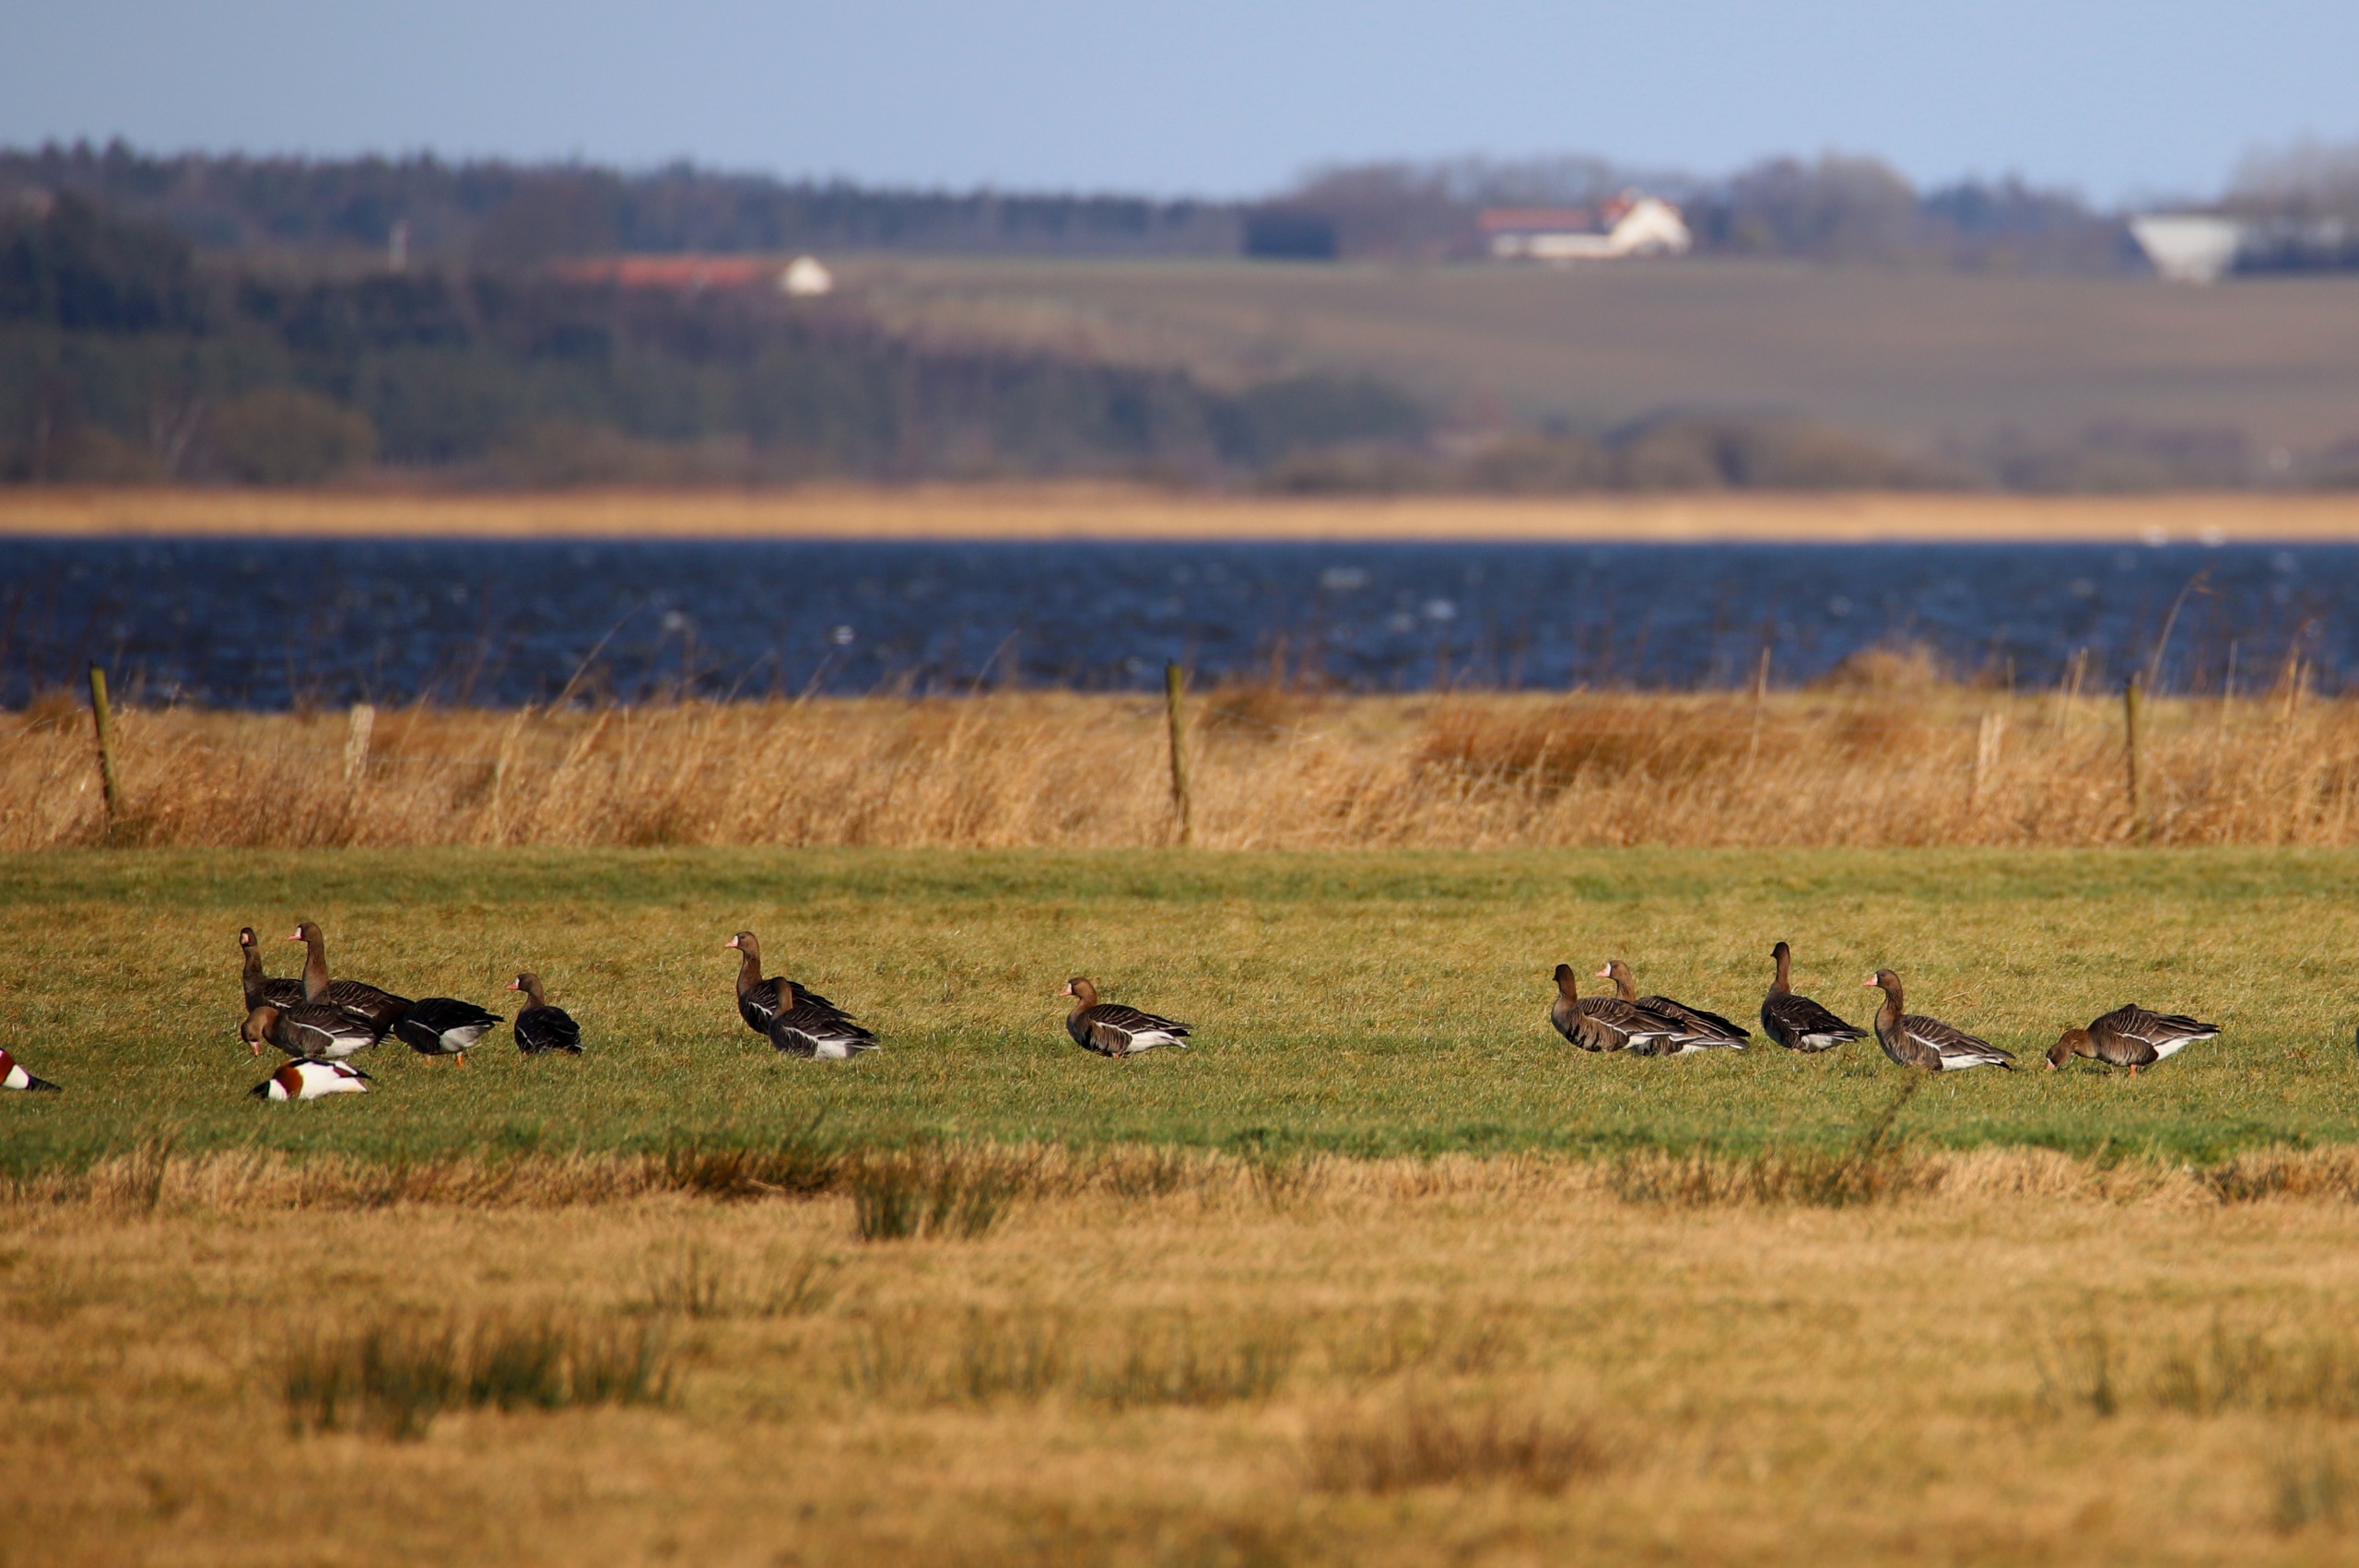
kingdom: Animalia
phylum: Chordata
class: Aves
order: Anseriformes
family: Anatidae
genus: Anser
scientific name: Anser albifrons
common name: Blisgås
